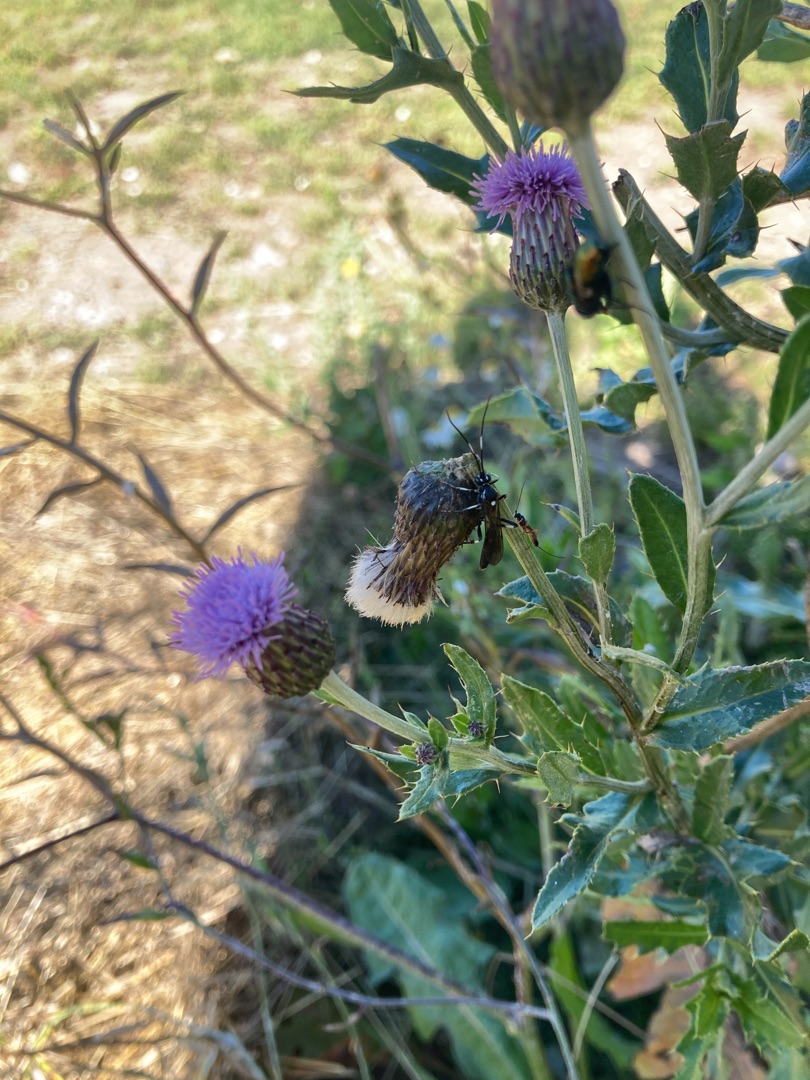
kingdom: Plantae
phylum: Tracheophyta
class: Magnoliopsida
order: Asterales
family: Asteraceae
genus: Cirsium
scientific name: Cirsium arvense
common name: Ager-tidsel
